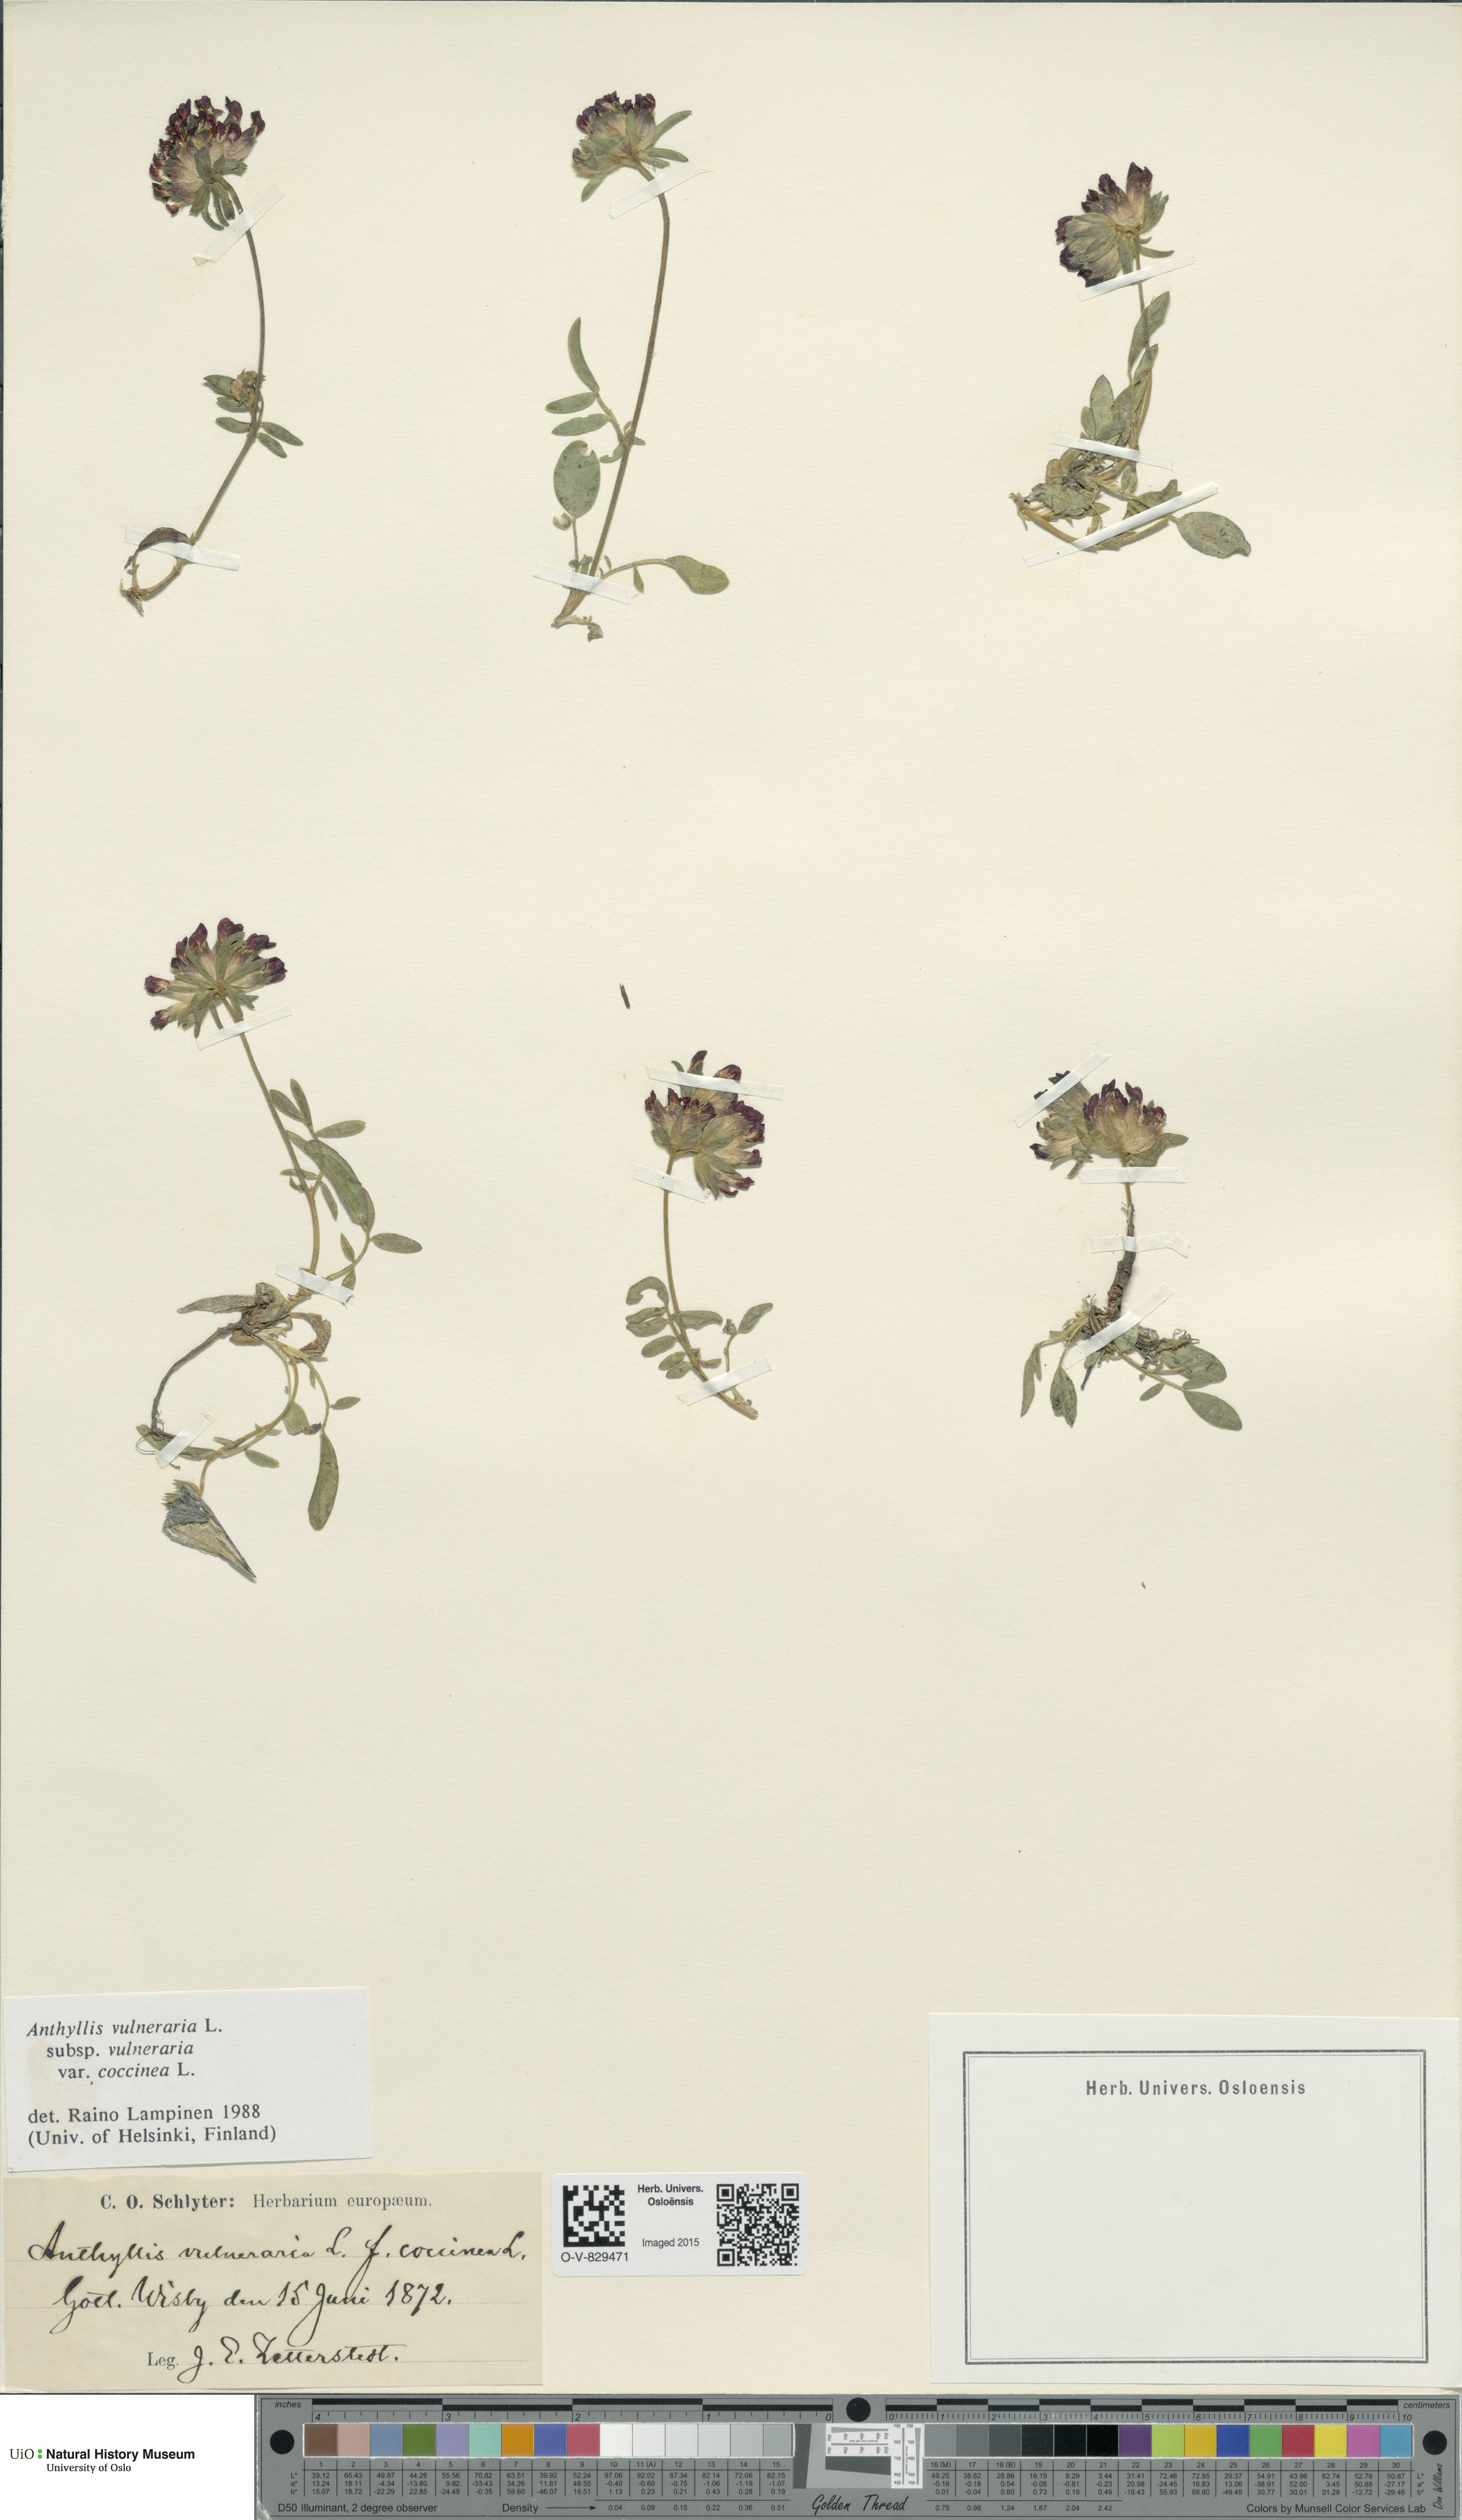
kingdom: Plantae
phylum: Tracheophyta
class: Magnoliopsida
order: Fabales
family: Fabaceae
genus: Anthyllis
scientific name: Anthyllis vulneraria
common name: Kidney vetch
